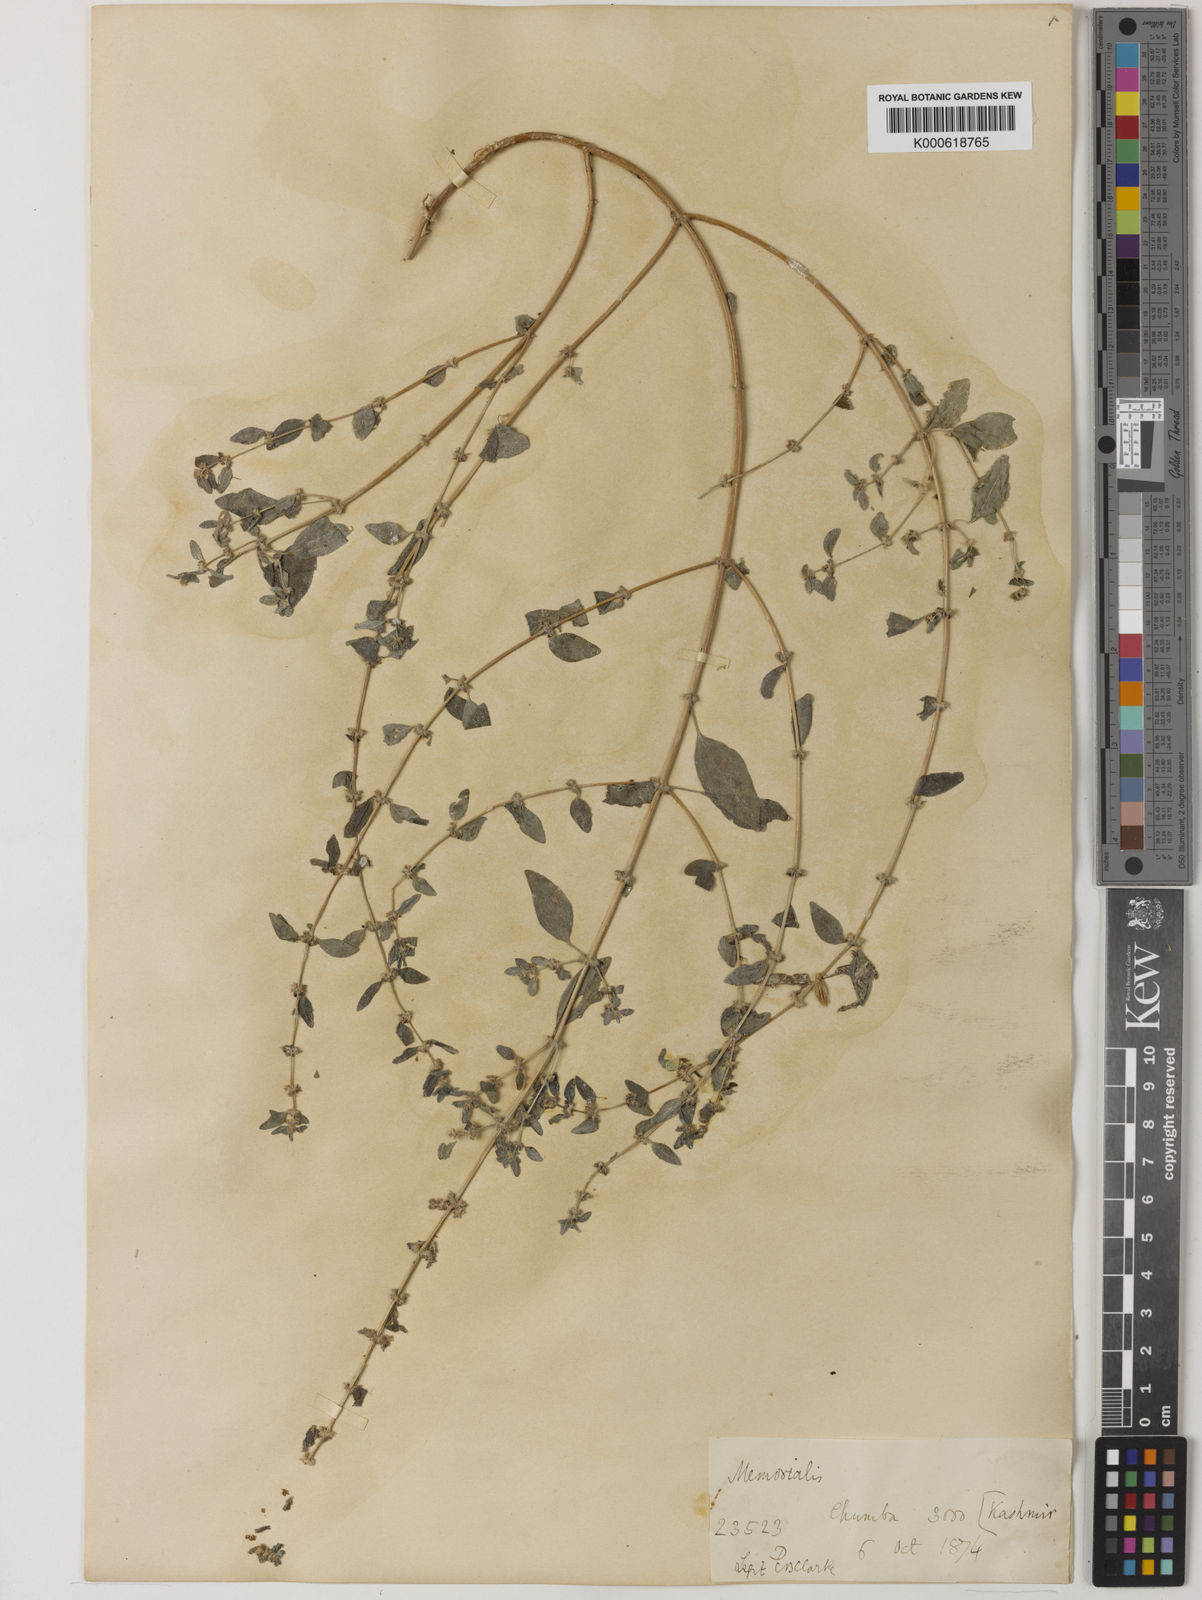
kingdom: Plantae
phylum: Tracheophyta
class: Magnoliopsida
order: Rosales
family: Urticaceae
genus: Pouzolzia
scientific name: Pouzolzia zeylanica
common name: Graceful pouzolzsbush
